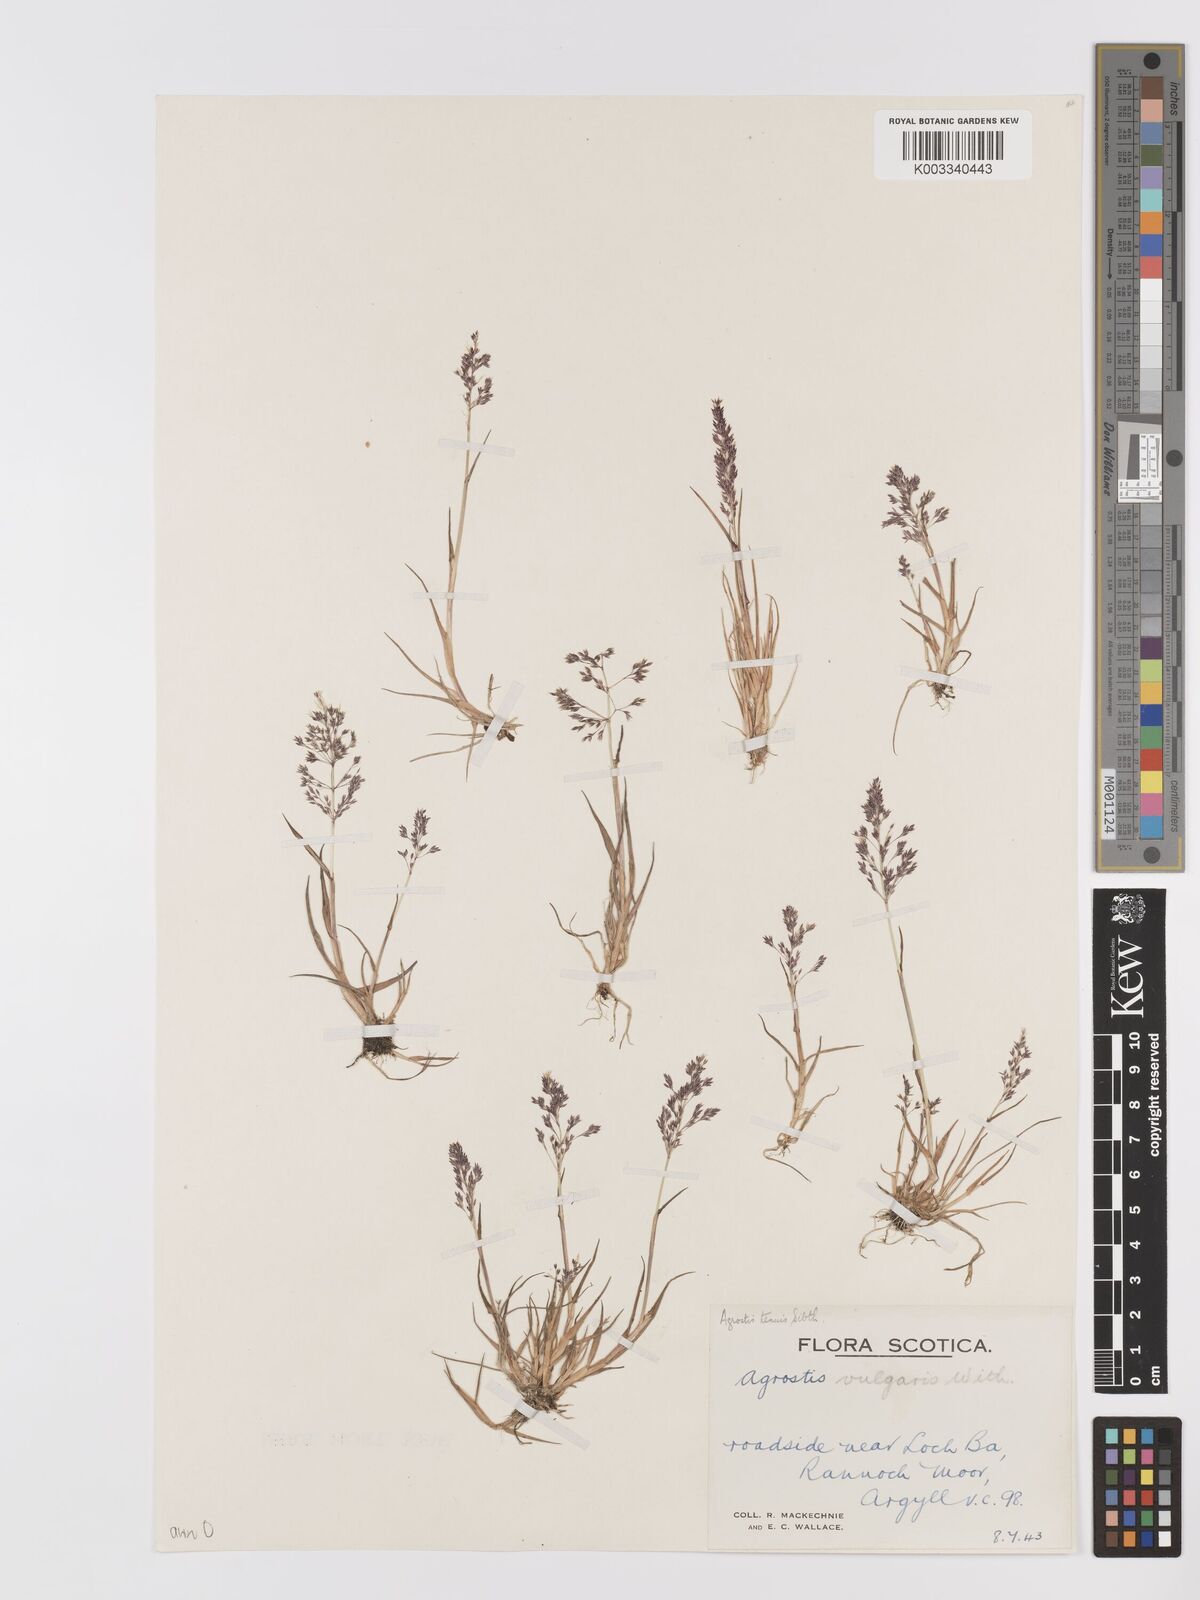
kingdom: Plantae
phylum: Tracheophyta
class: Liliopsida
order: Poales
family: Poaceae
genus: Agrostis
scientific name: Agrostis capillaris
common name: Colonial bentgrass
